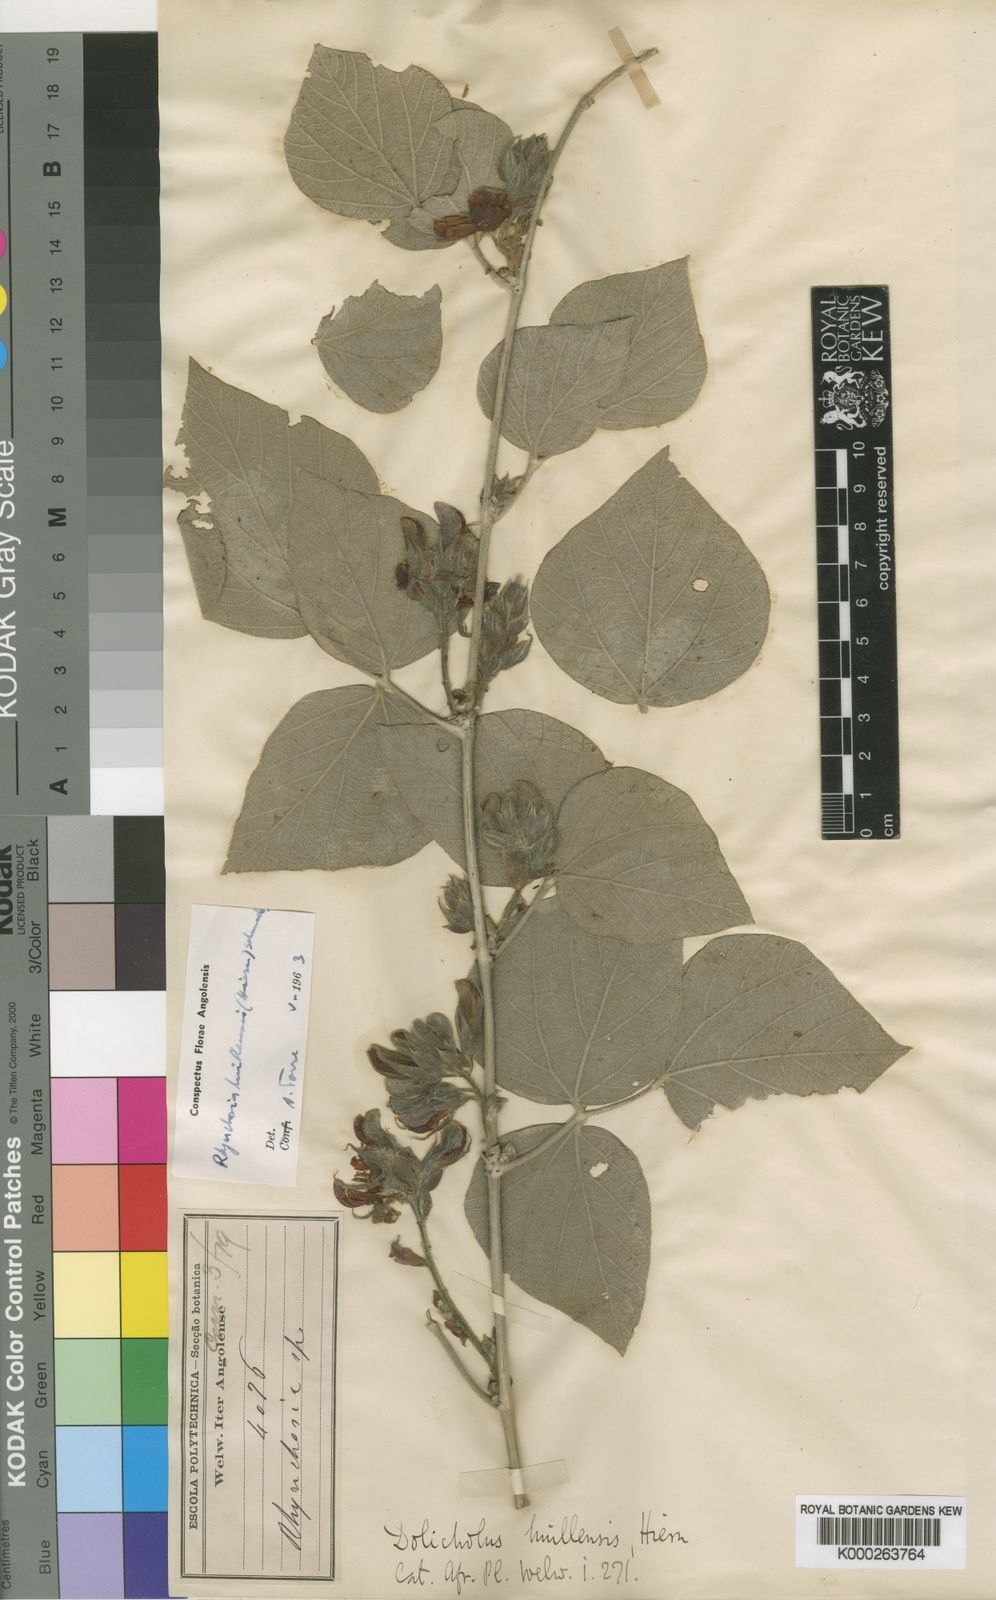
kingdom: Plantae
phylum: Tracheophyta
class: Magnoliopsida
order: Fabales
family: Fabaceae
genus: Rhynchosia
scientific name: Rhynchosia huillensis
